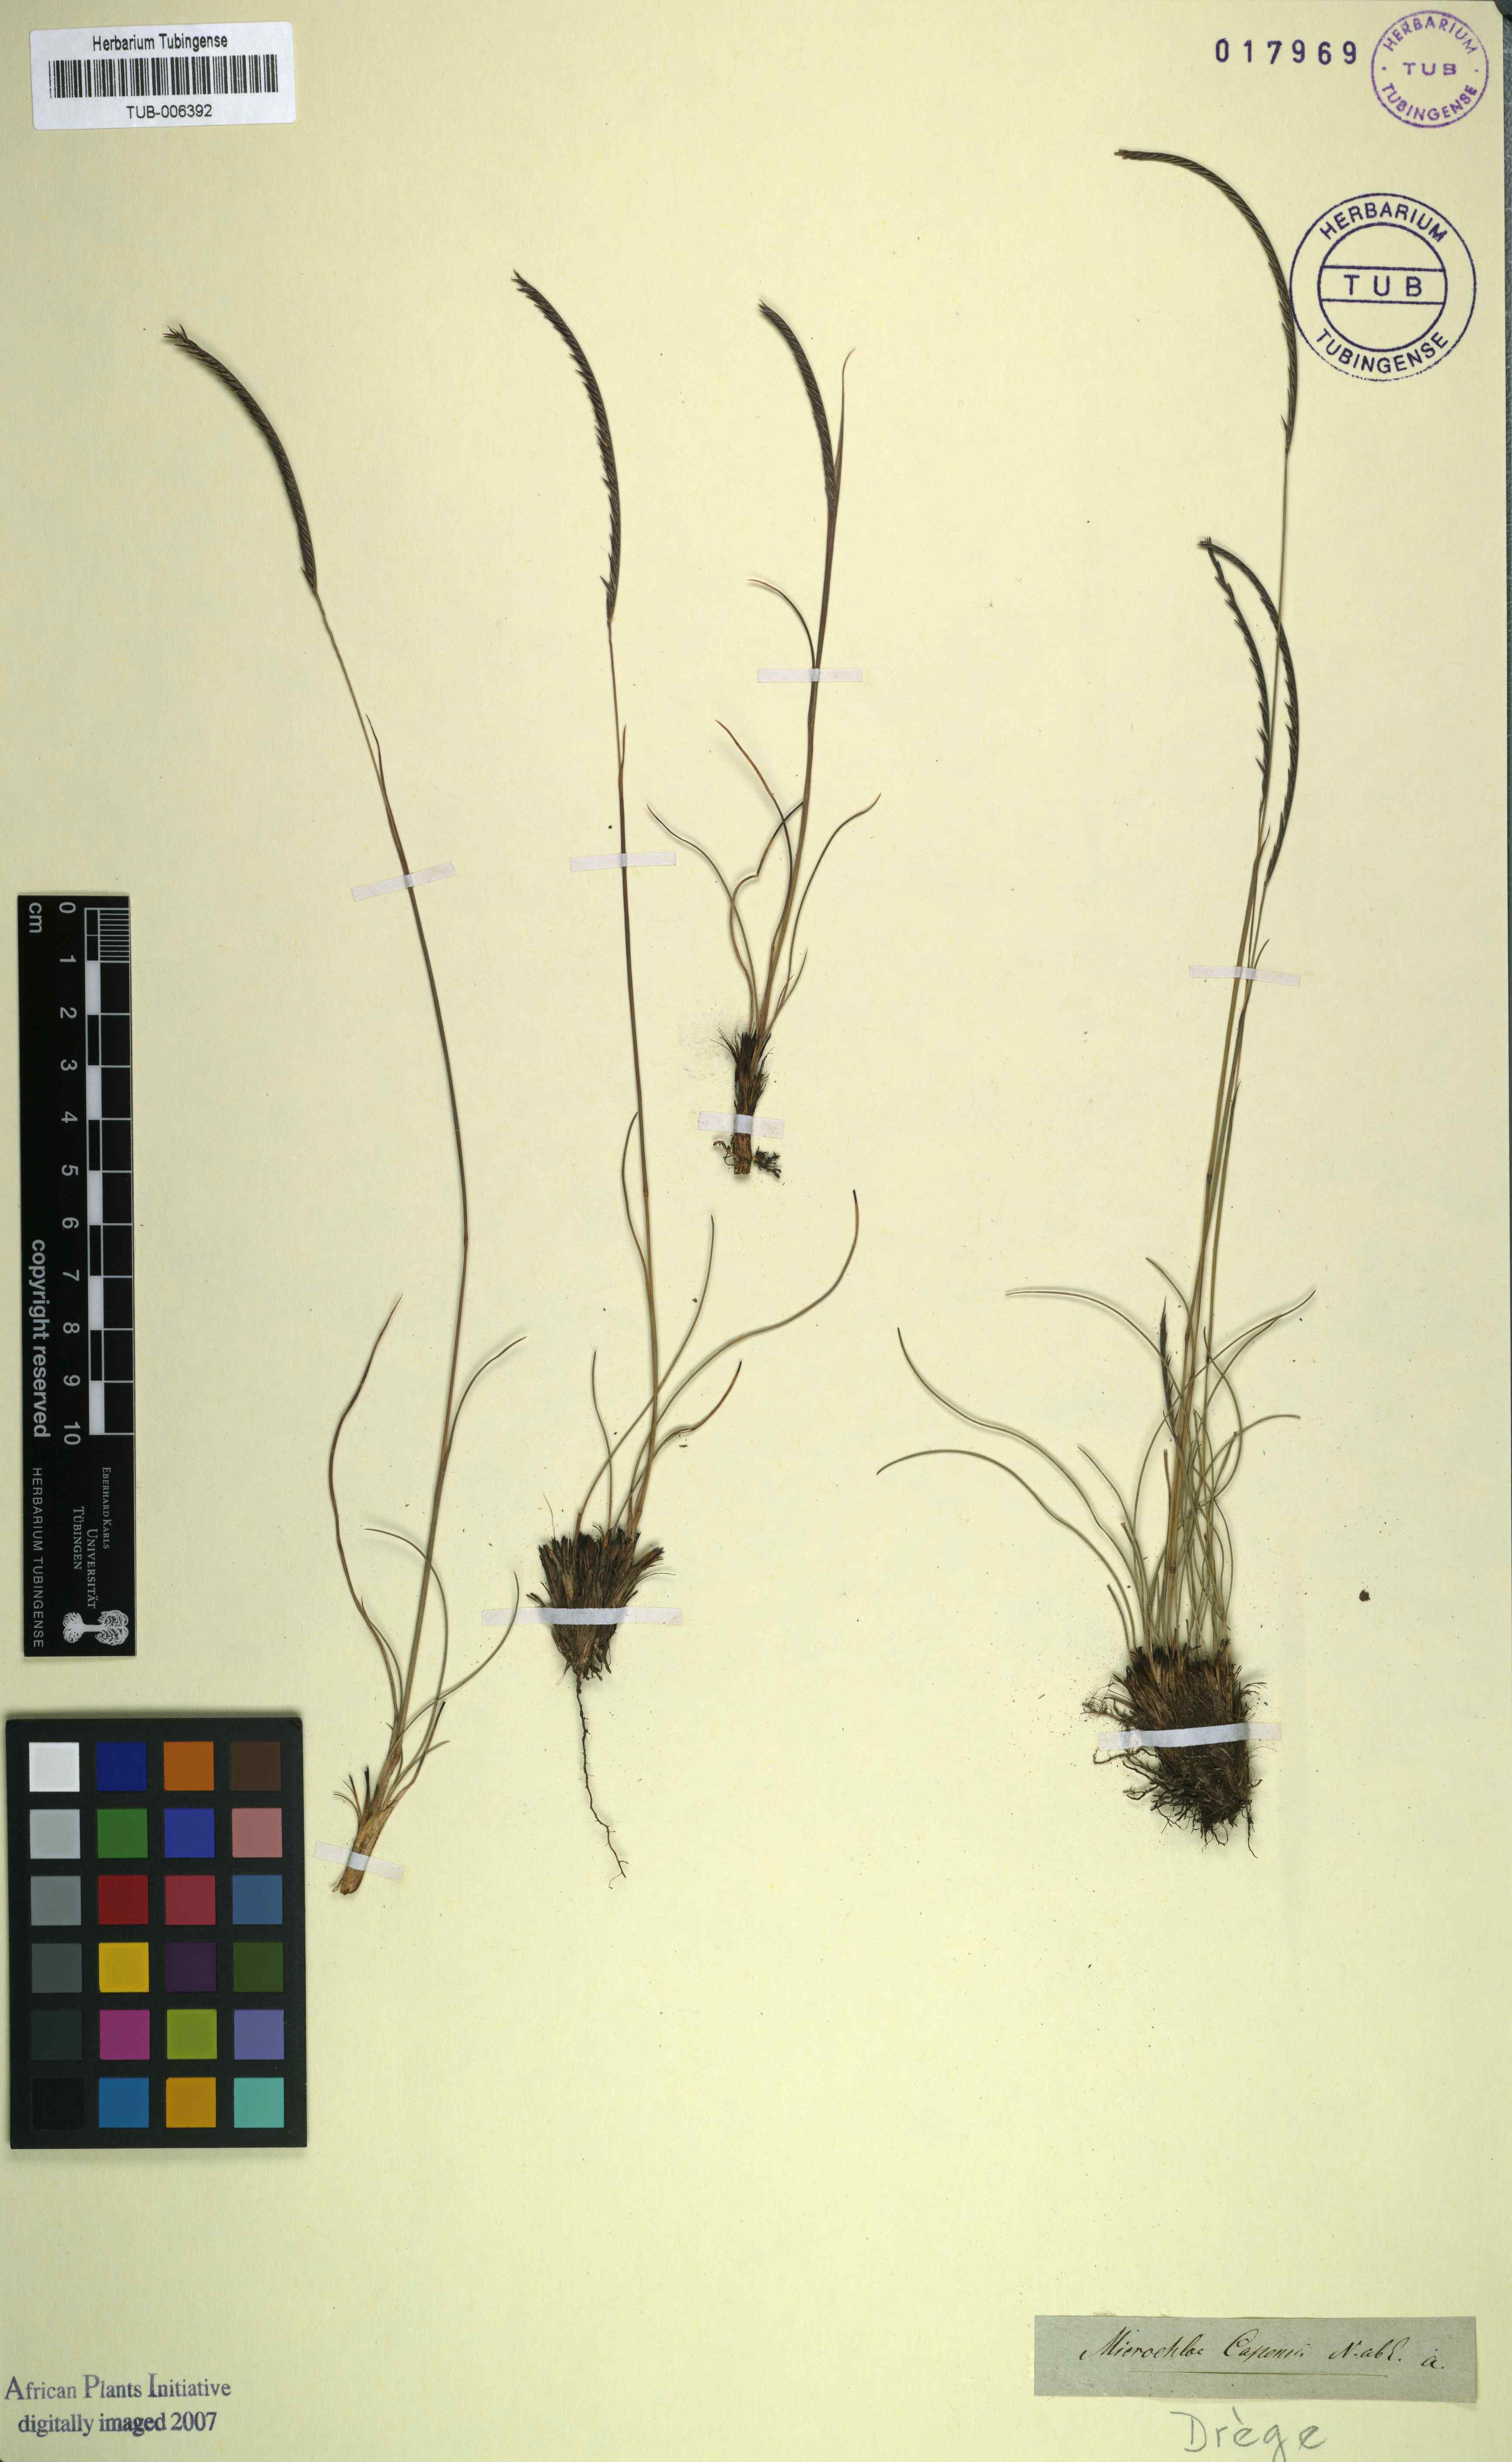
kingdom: Plantae
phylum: Tracheophyta
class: Liliopsida
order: Poales
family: Poaceae
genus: Microchloa
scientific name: Microchloa caffra
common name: Pincushion grass
